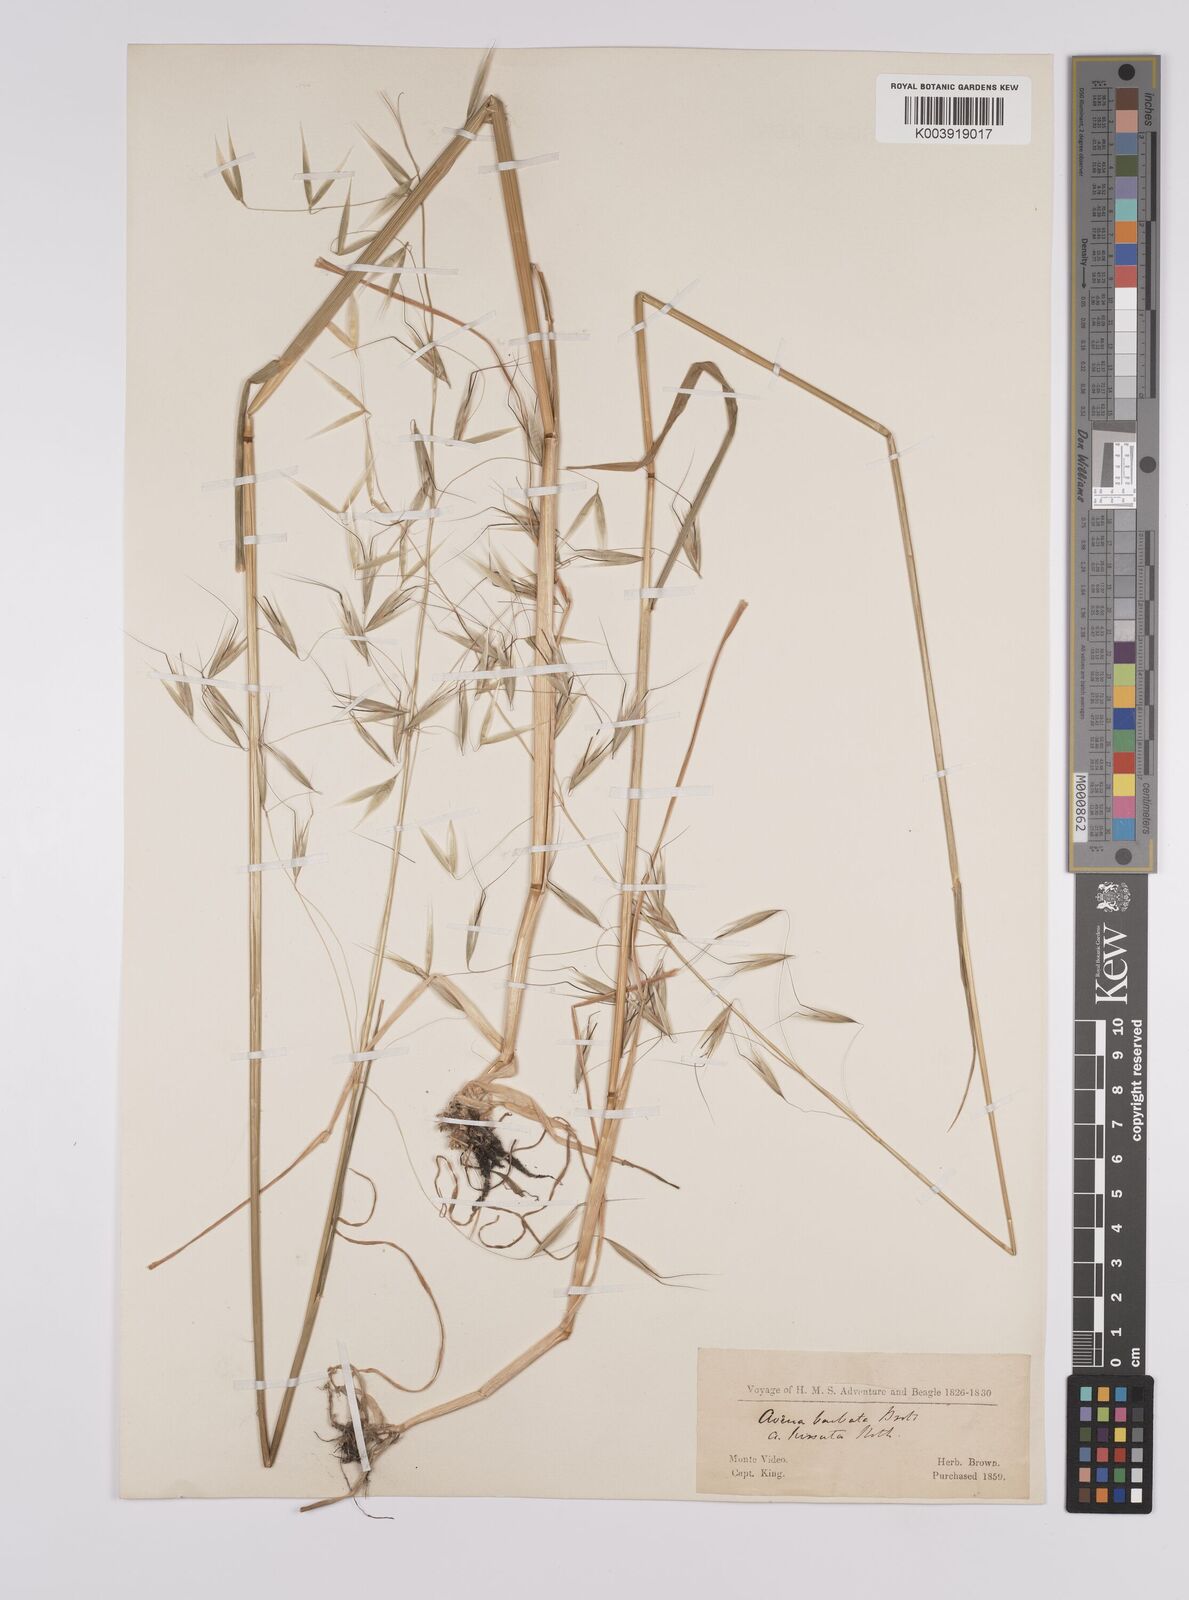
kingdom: Plantae
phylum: Tracheophyta
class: Liliopsida
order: Poales
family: Poaceae
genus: Avena
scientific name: Avena barbata
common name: Slender oat
